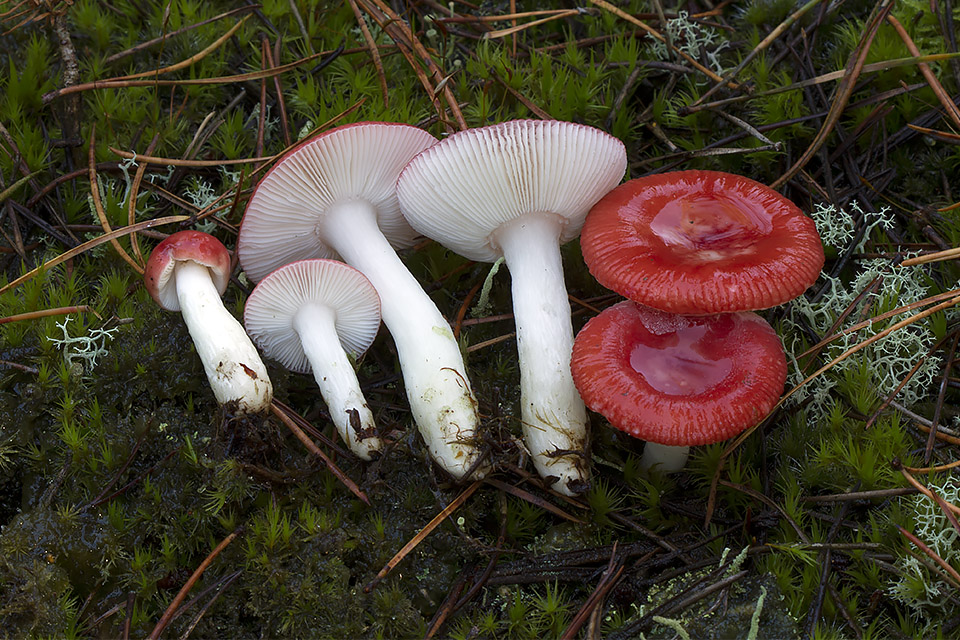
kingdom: Fungi
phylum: Basidiomycota
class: Agaricomycetes
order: Russulales
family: Russulaceae
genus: Russula
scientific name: Russula emetica
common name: stor gift-skørhat
